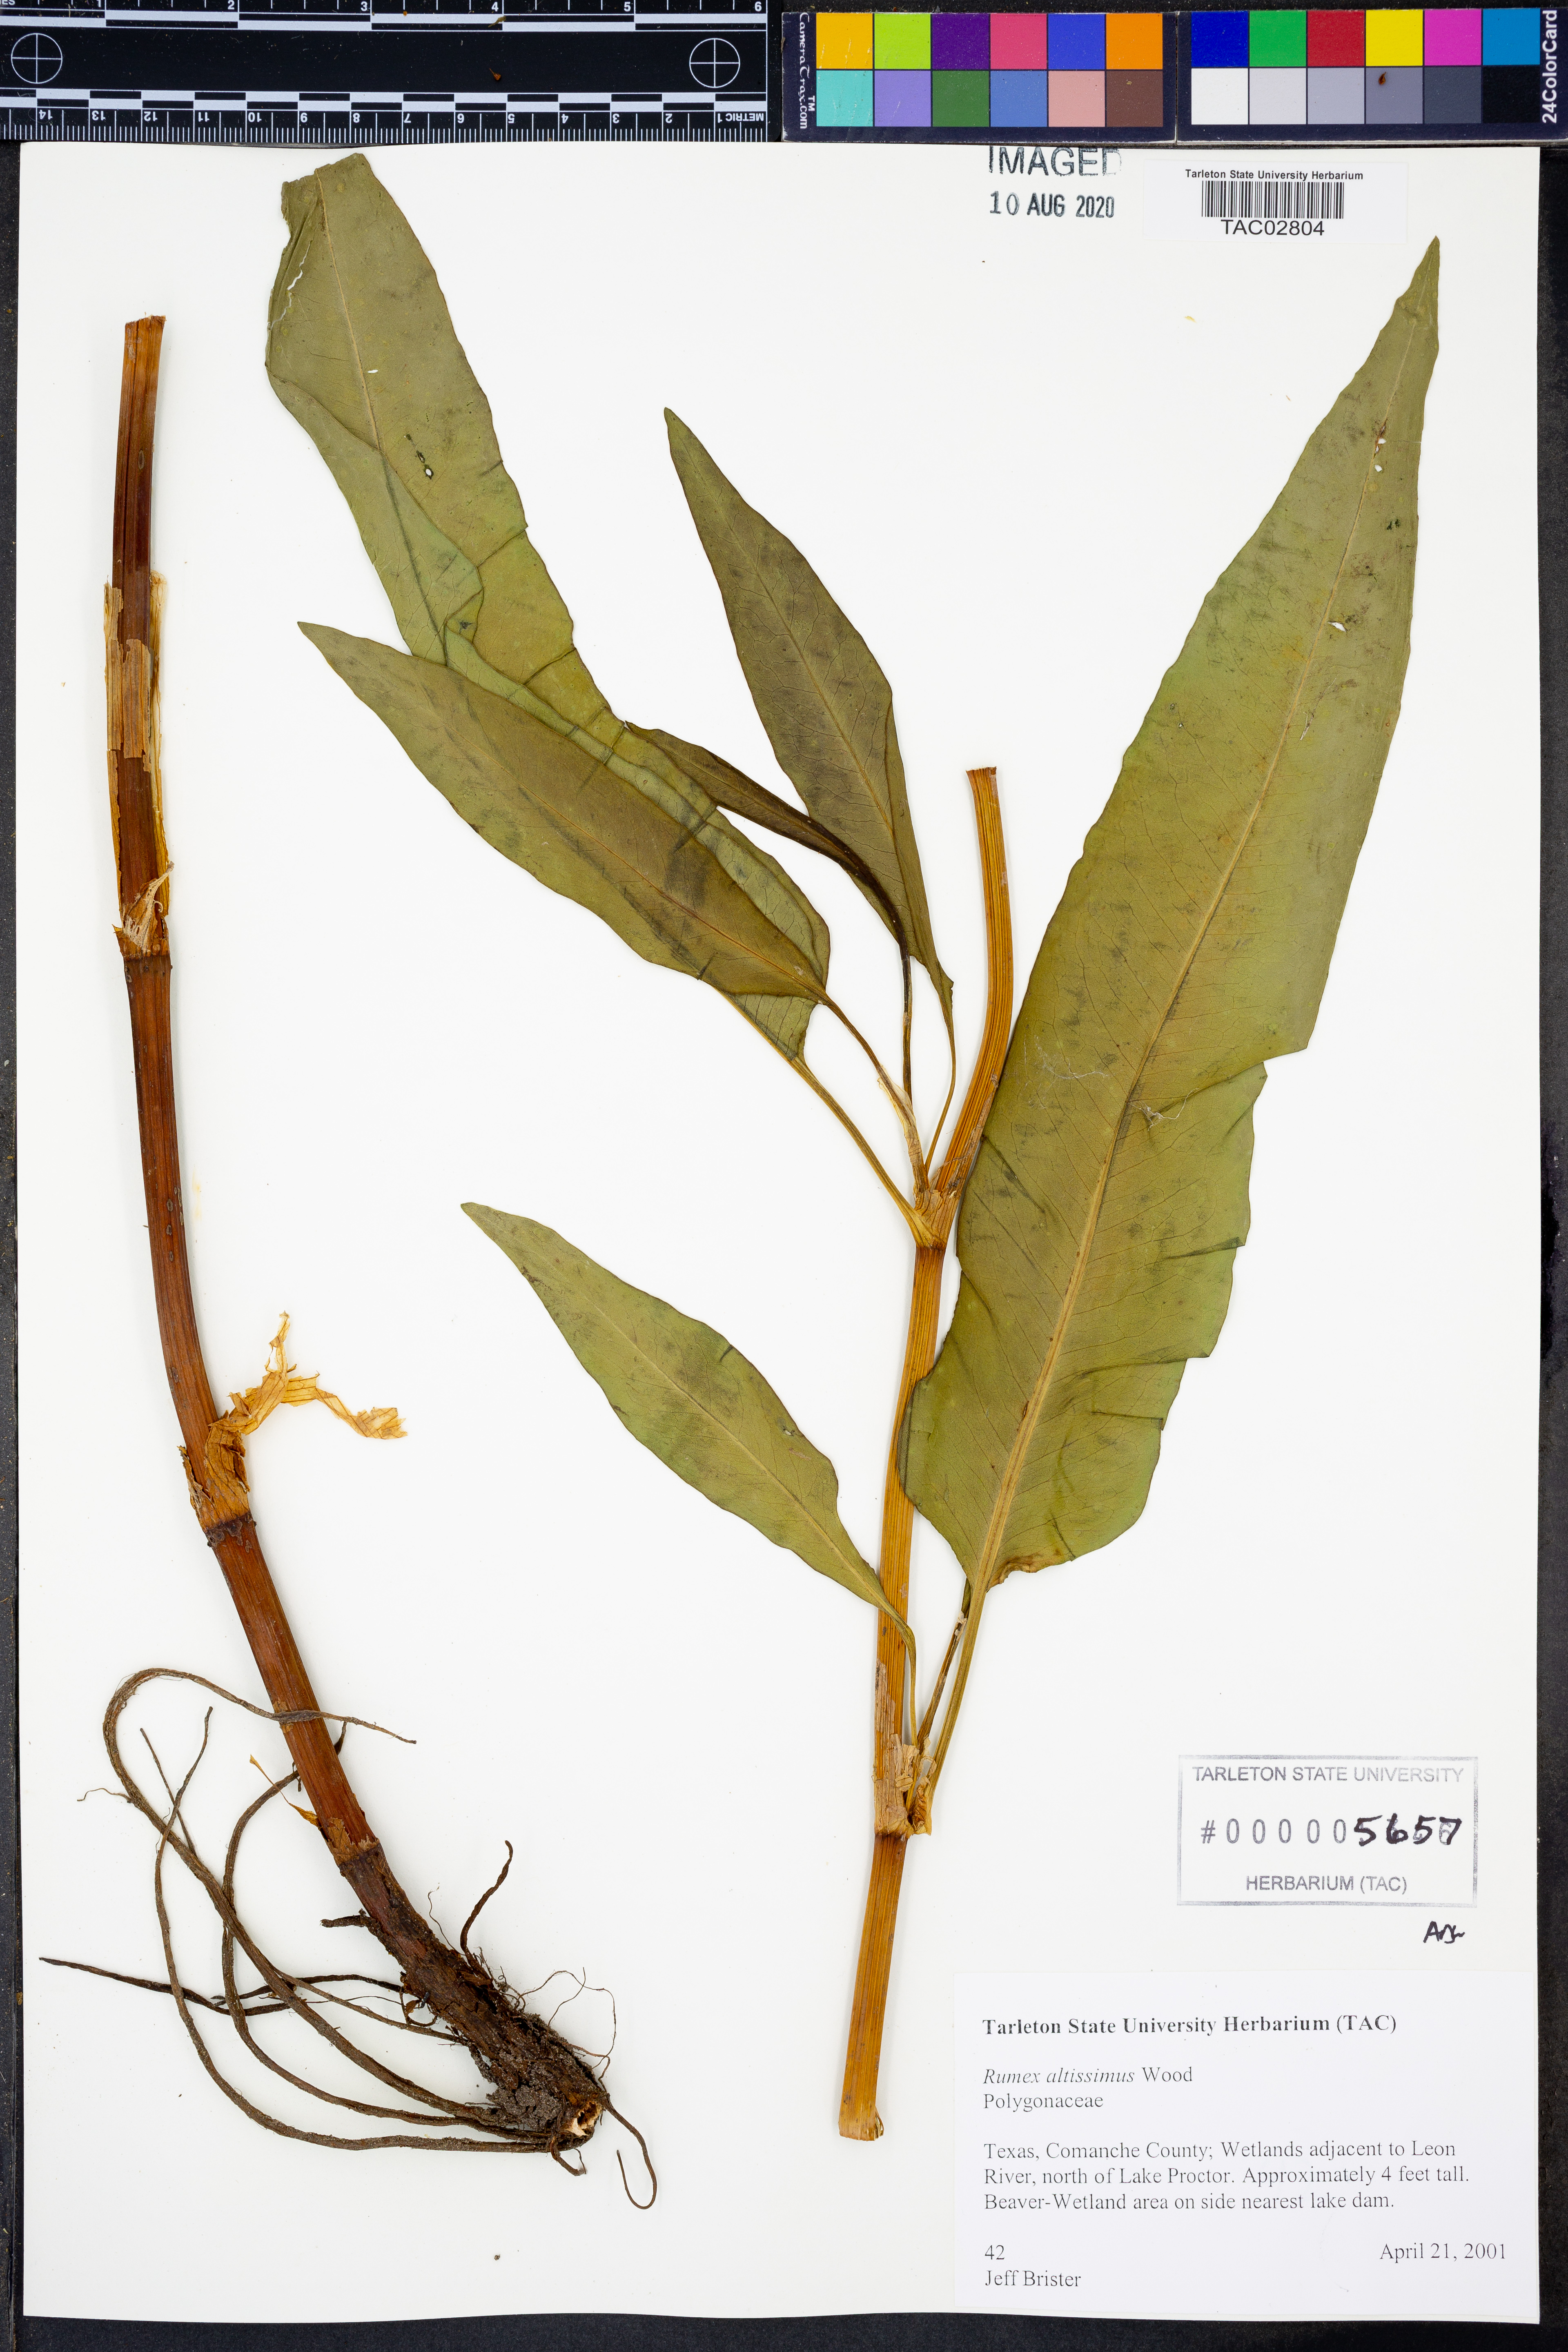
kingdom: Plantae
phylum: Tracheophyta
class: Magnoliopsida
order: Caryophyllales
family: Polygonaceae
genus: Rumex
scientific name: Rumex altissimus
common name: Smooth dock
